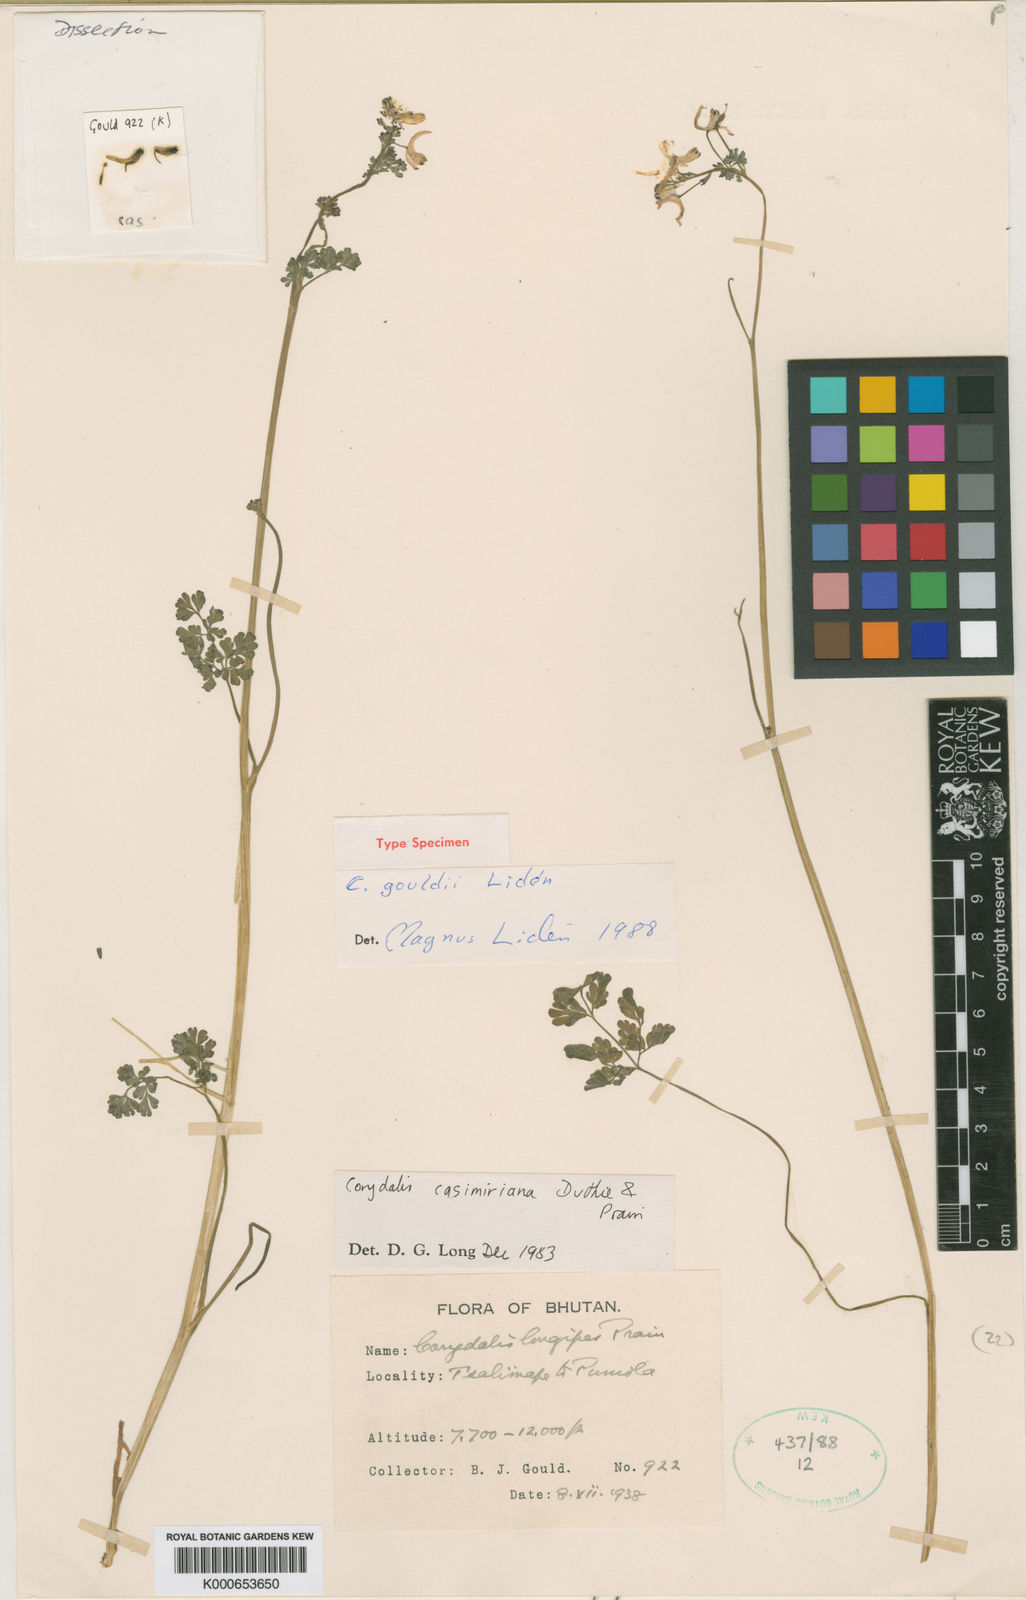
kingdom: Plantae
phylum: Tracheophyta
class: Magnoliopsida
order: Ranunculales
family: Papaveraceae
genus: Corydalis
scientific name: Corydalis
